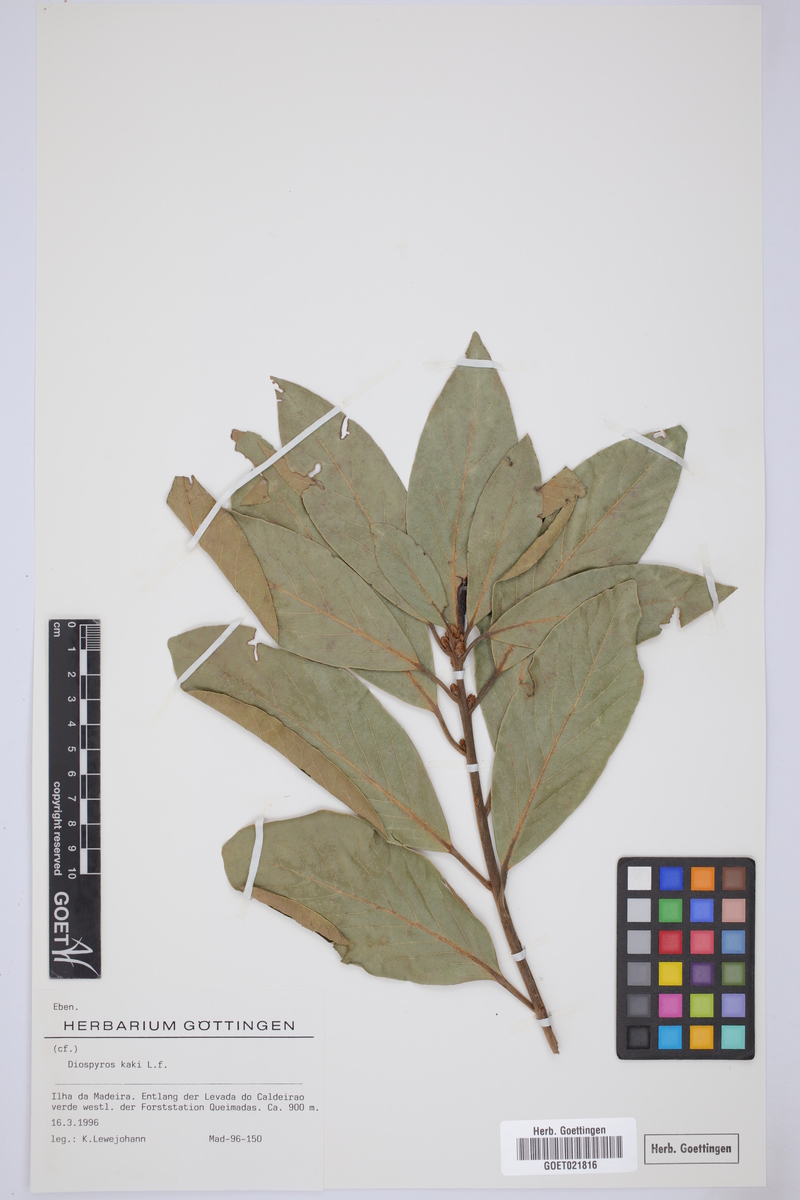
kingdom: Plantae
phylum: Tracheophyta
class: Magnoliopsida
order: Ericales
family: Ebenaceae
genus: Diospyros
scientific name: Diospyros kaki
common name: Persimmon
